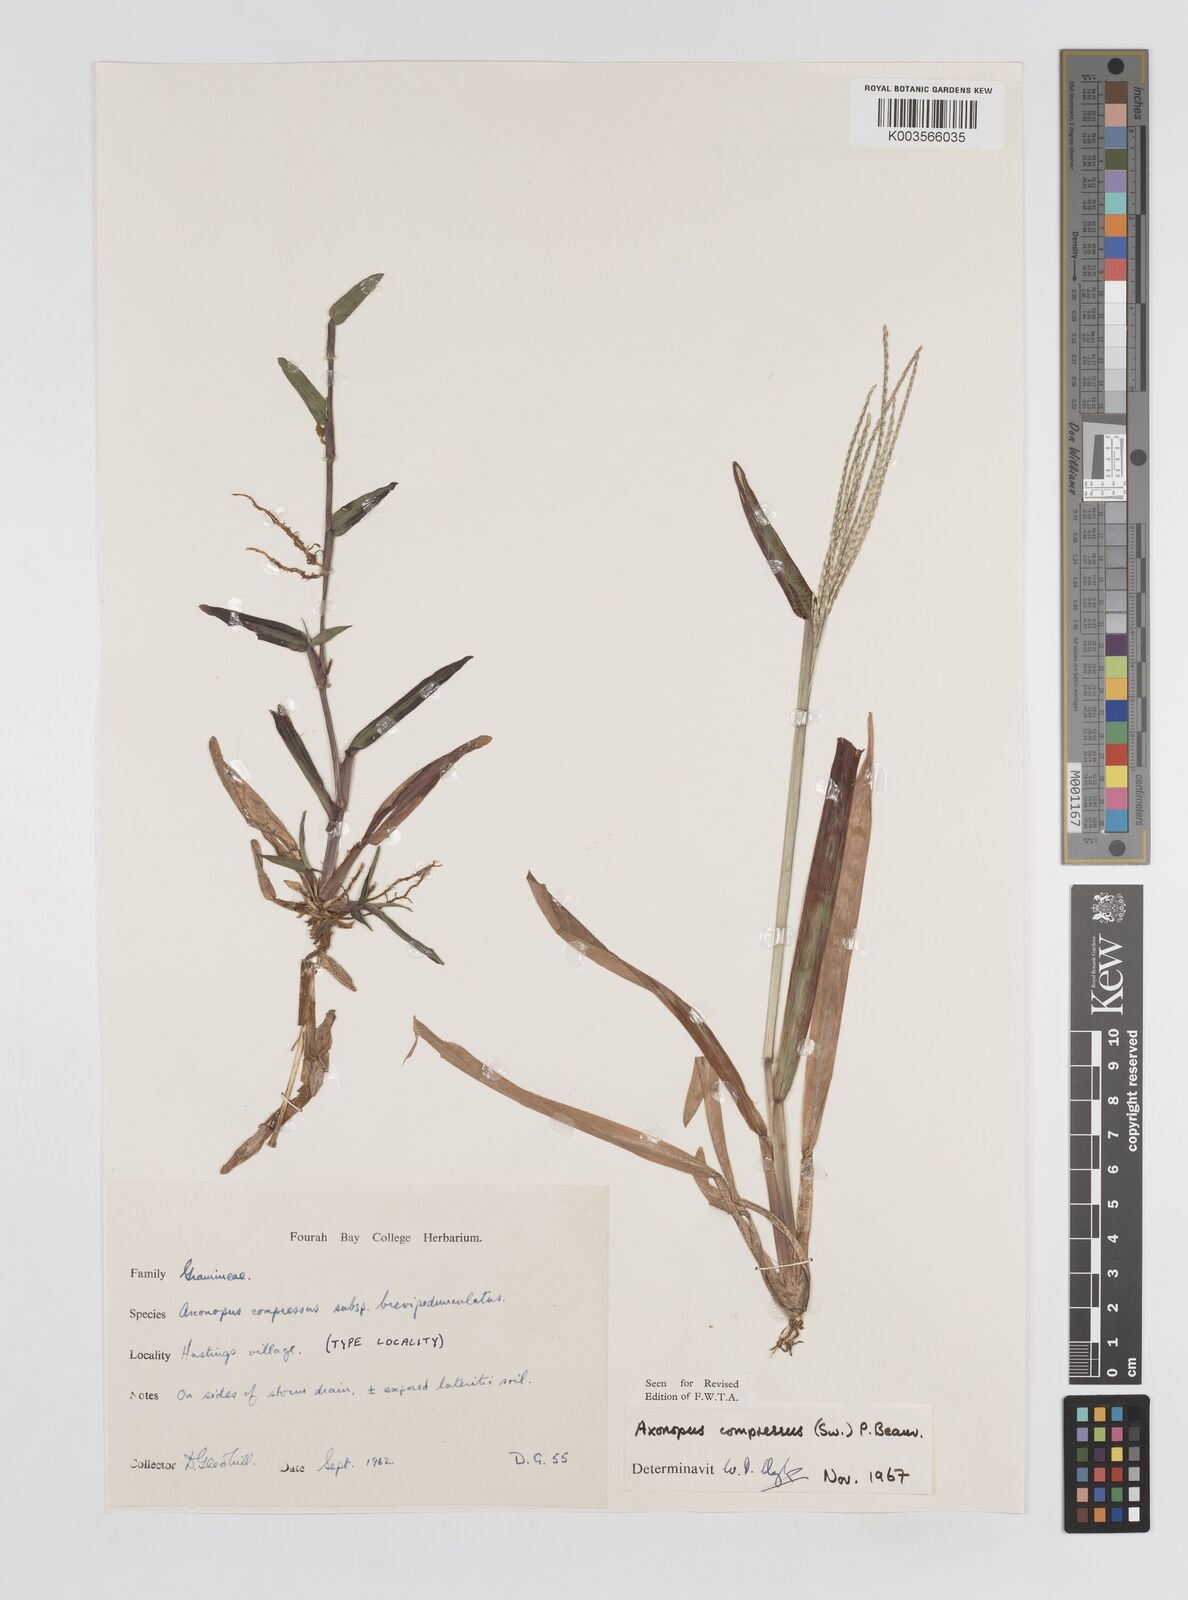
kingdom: Plantae
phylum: Tracheophyta
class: Liliopsida
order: Poales
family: Poaceae
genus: Axonopus
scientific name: Axonopus compressus
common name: American carpet grass
